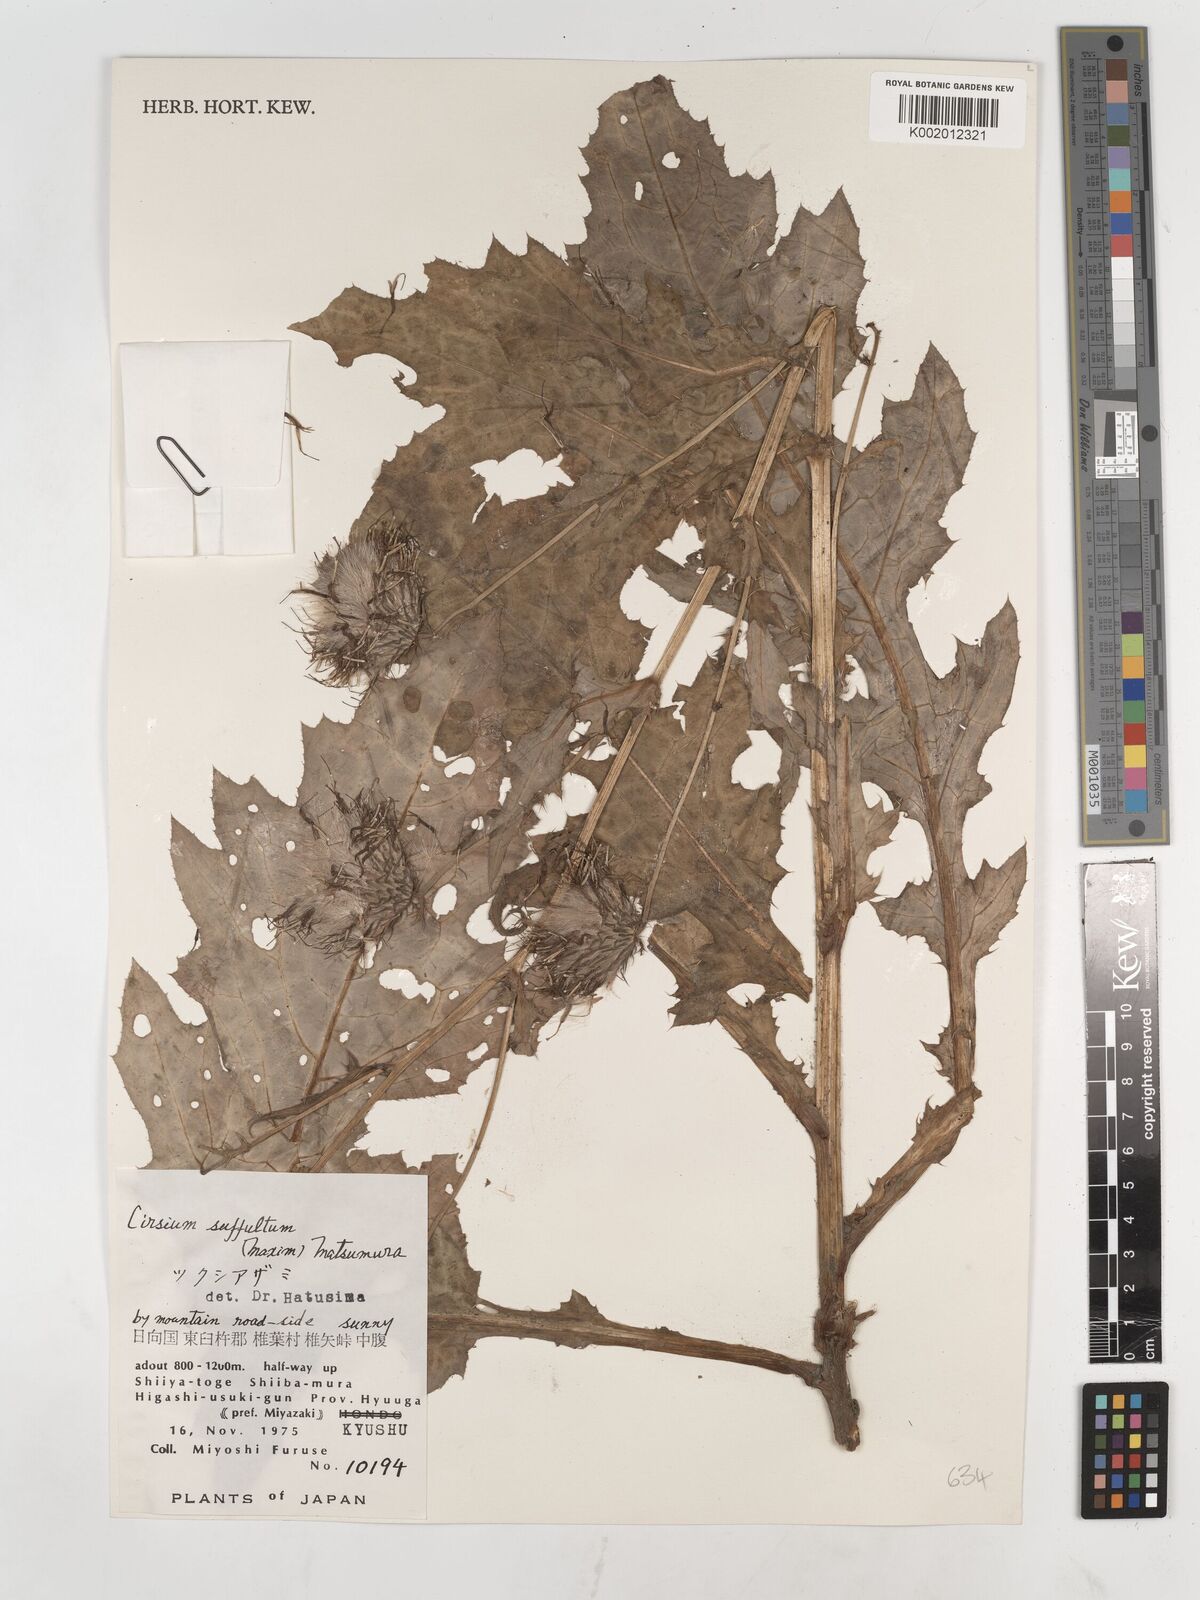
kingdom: Plantae
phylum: Tracheophyta
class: Magnoliopsida
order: Asterales
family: Asteraceae
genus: Cirsium
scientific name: Cirsium suffultum
